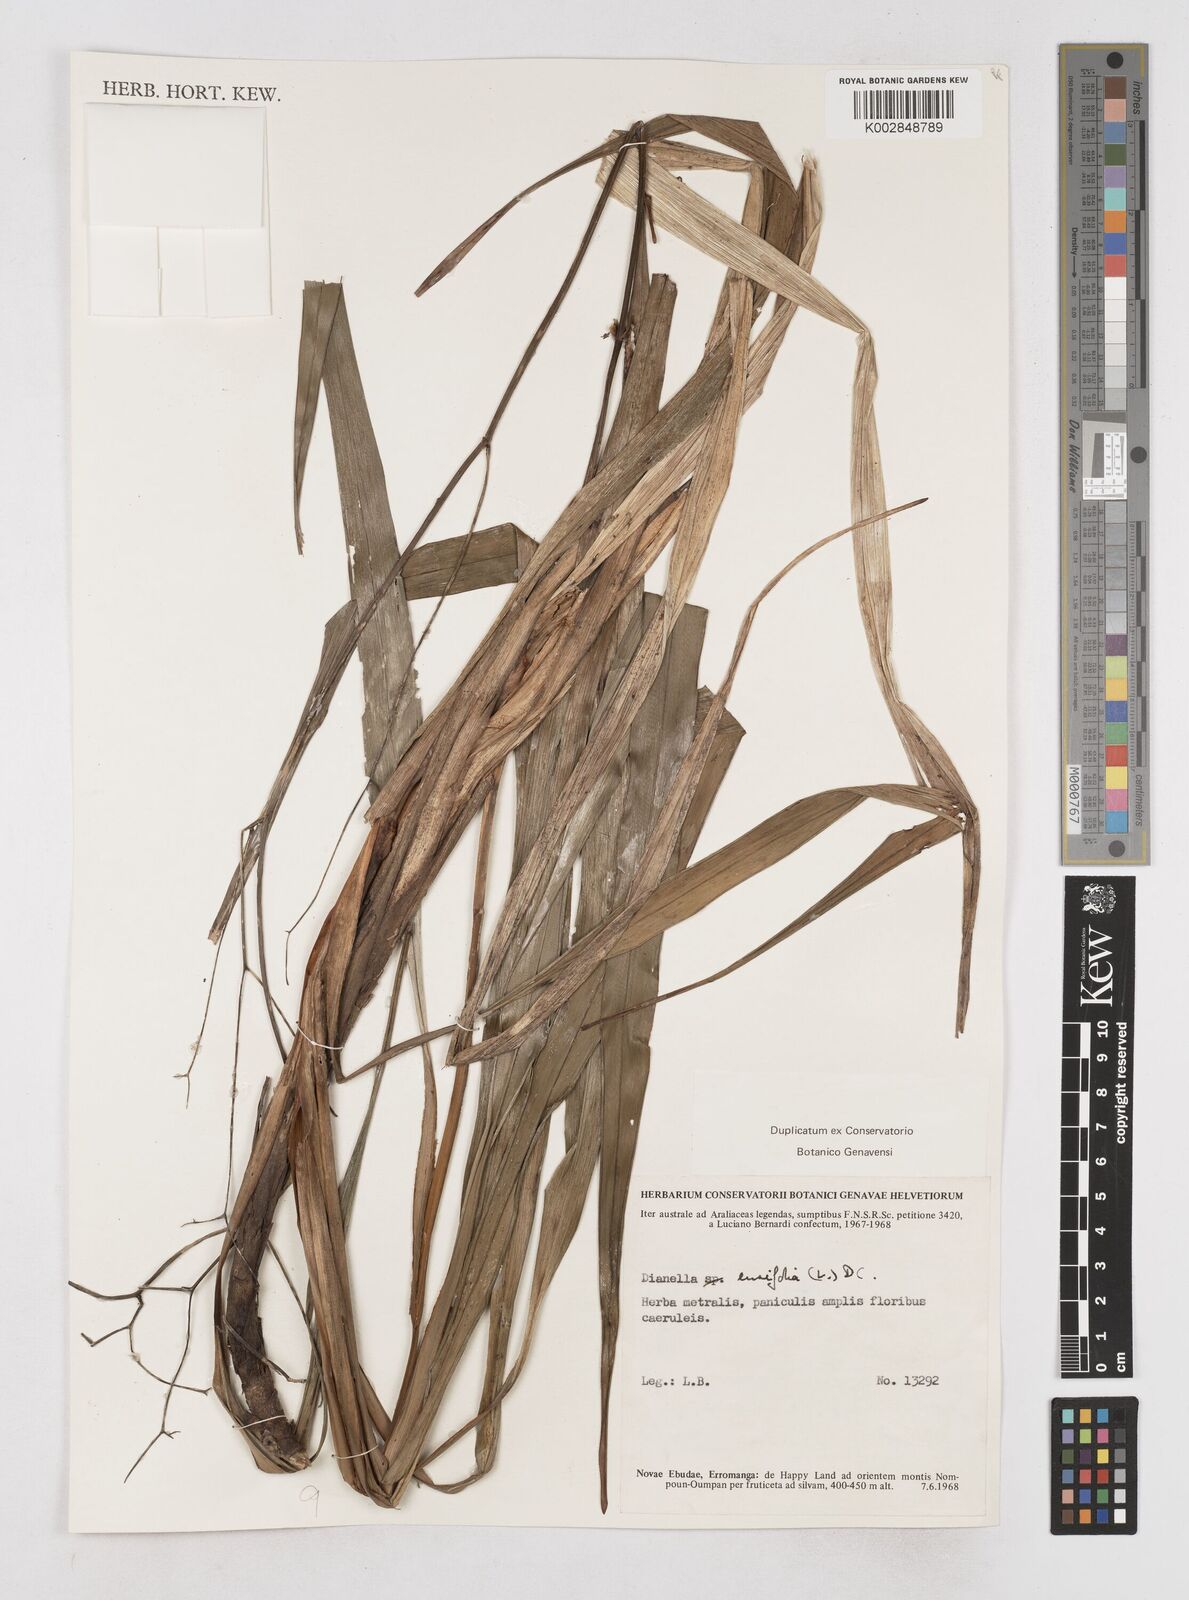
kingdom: Plantae
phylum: Tracheophyta
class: Liliopsida
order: Asparagales
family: Asphodelaceae
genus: Dianella
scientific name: Dianella ensifolia
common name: New zealand lilyplant
